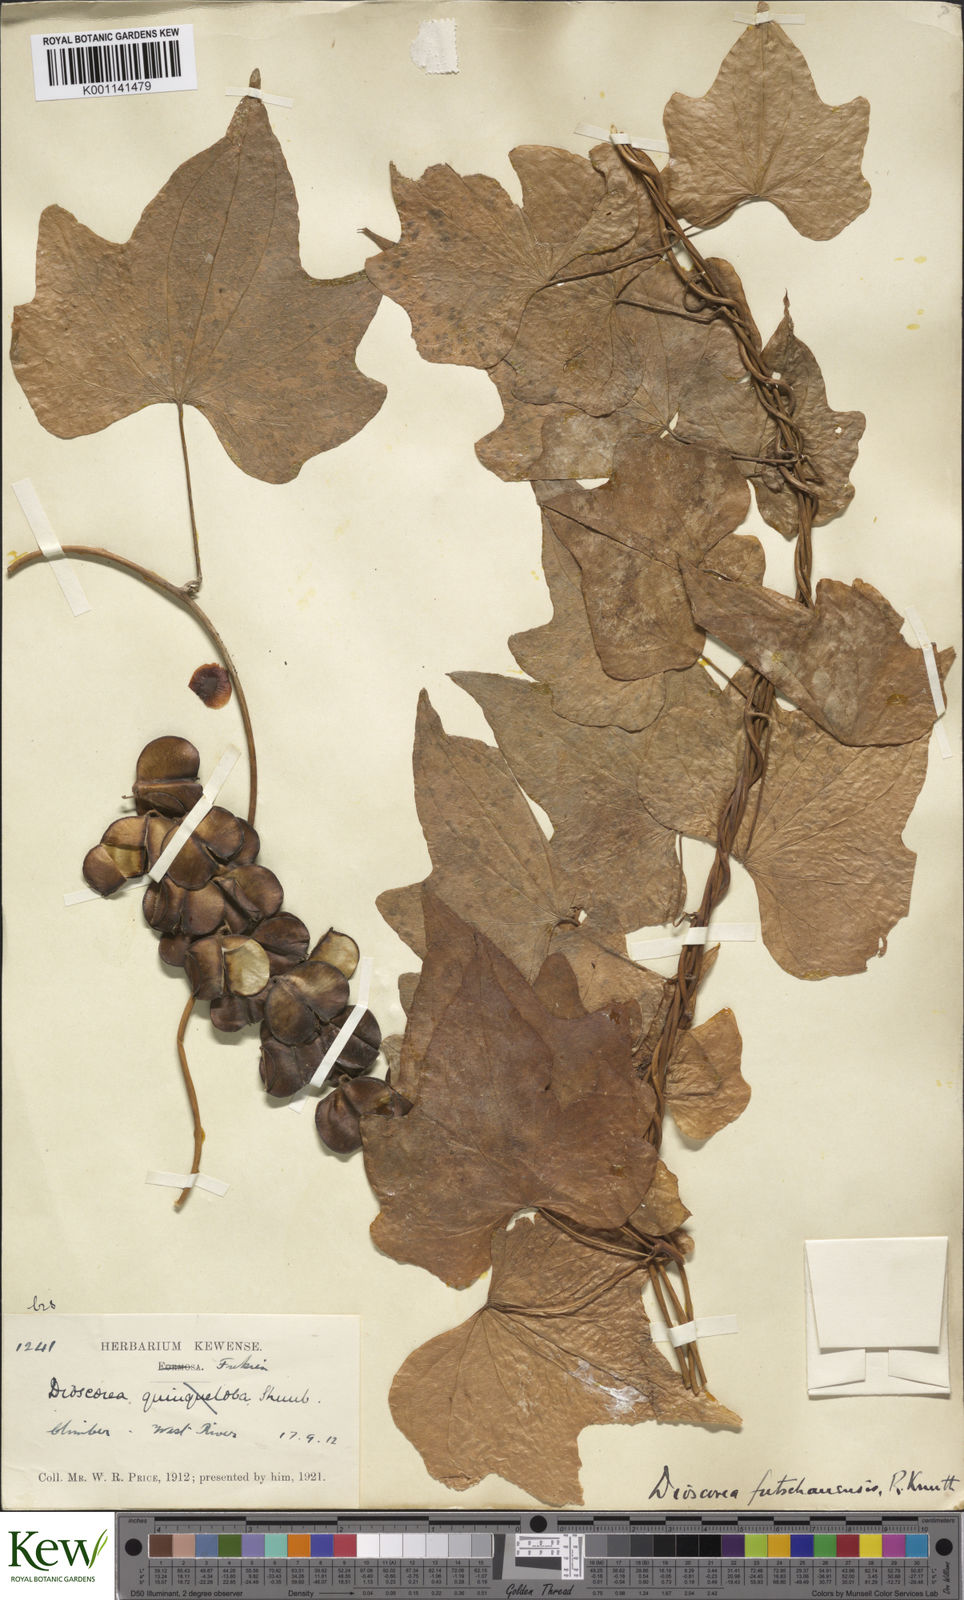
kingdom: Plantae
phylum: Tracheophyta
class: Liliopsida
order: Dioscoreales
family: Dioscoreaceae
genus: Dioscorea
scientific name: Dioscorea futschauensis
